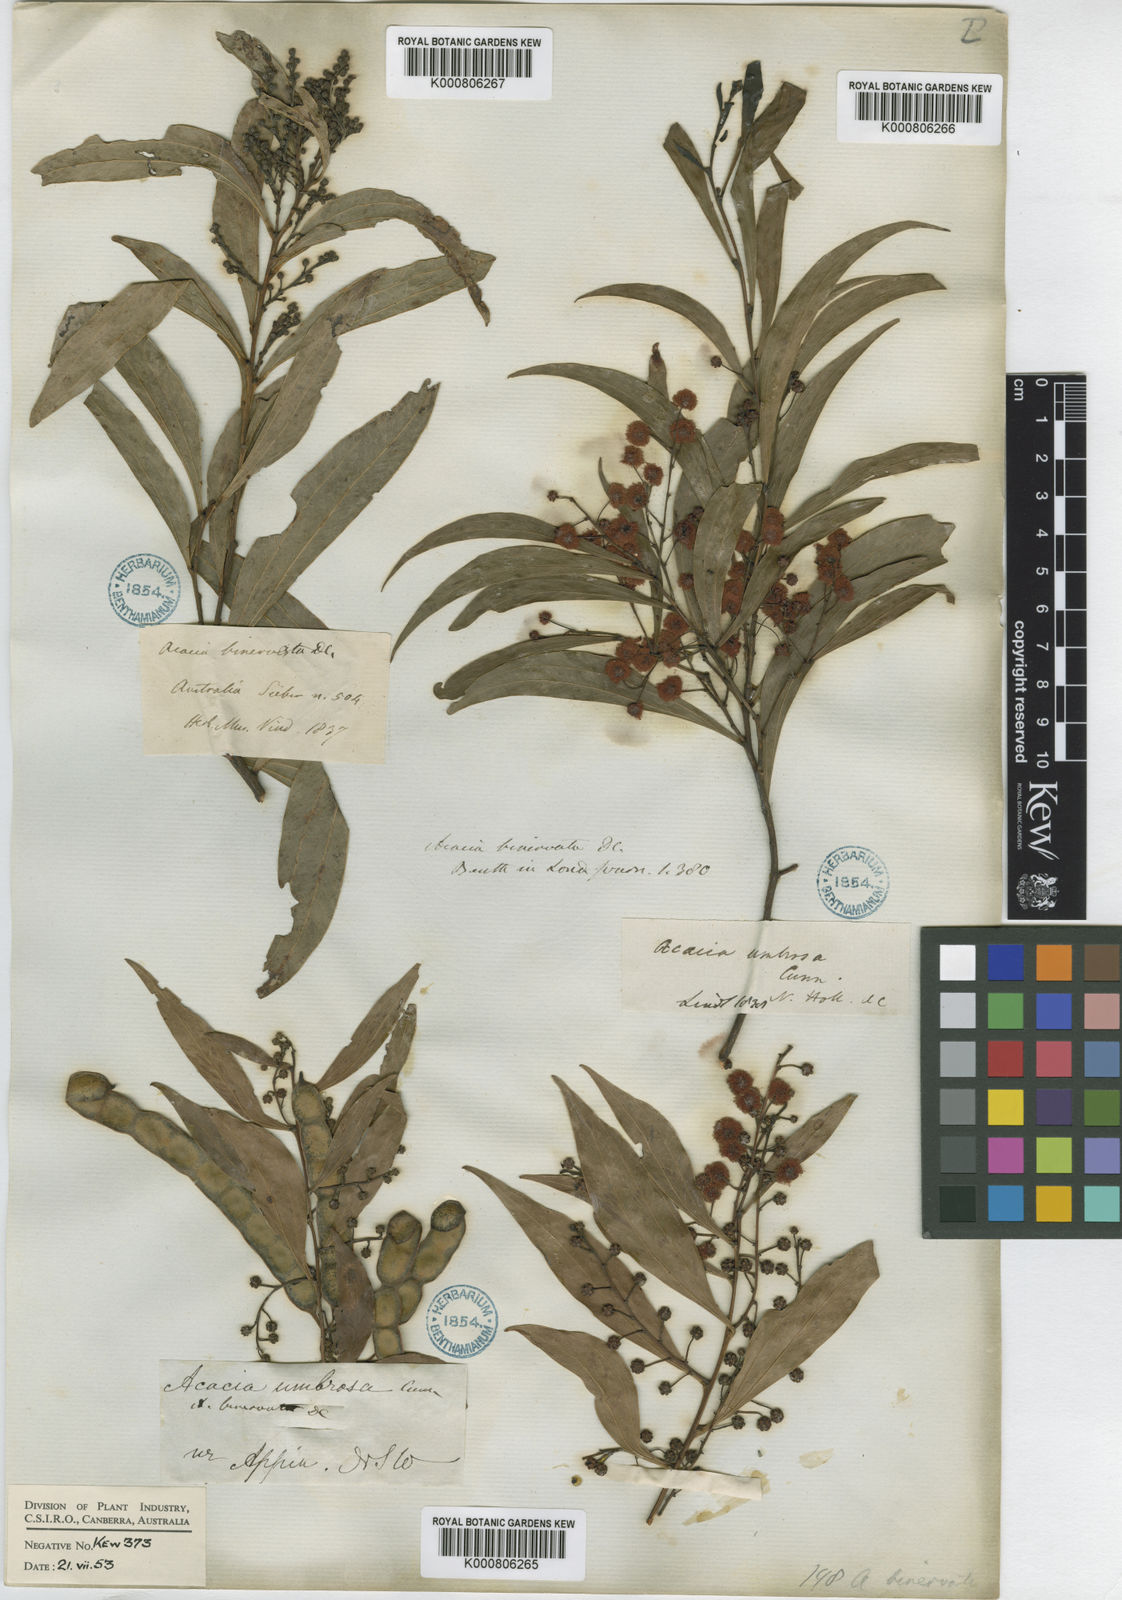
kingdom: Plantae
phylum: Tracheophyta
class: Magnoliopsida
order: Fabales
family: Fabaceae
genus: Acacia
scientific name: Acacia binervata
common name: Two-veined hickory
